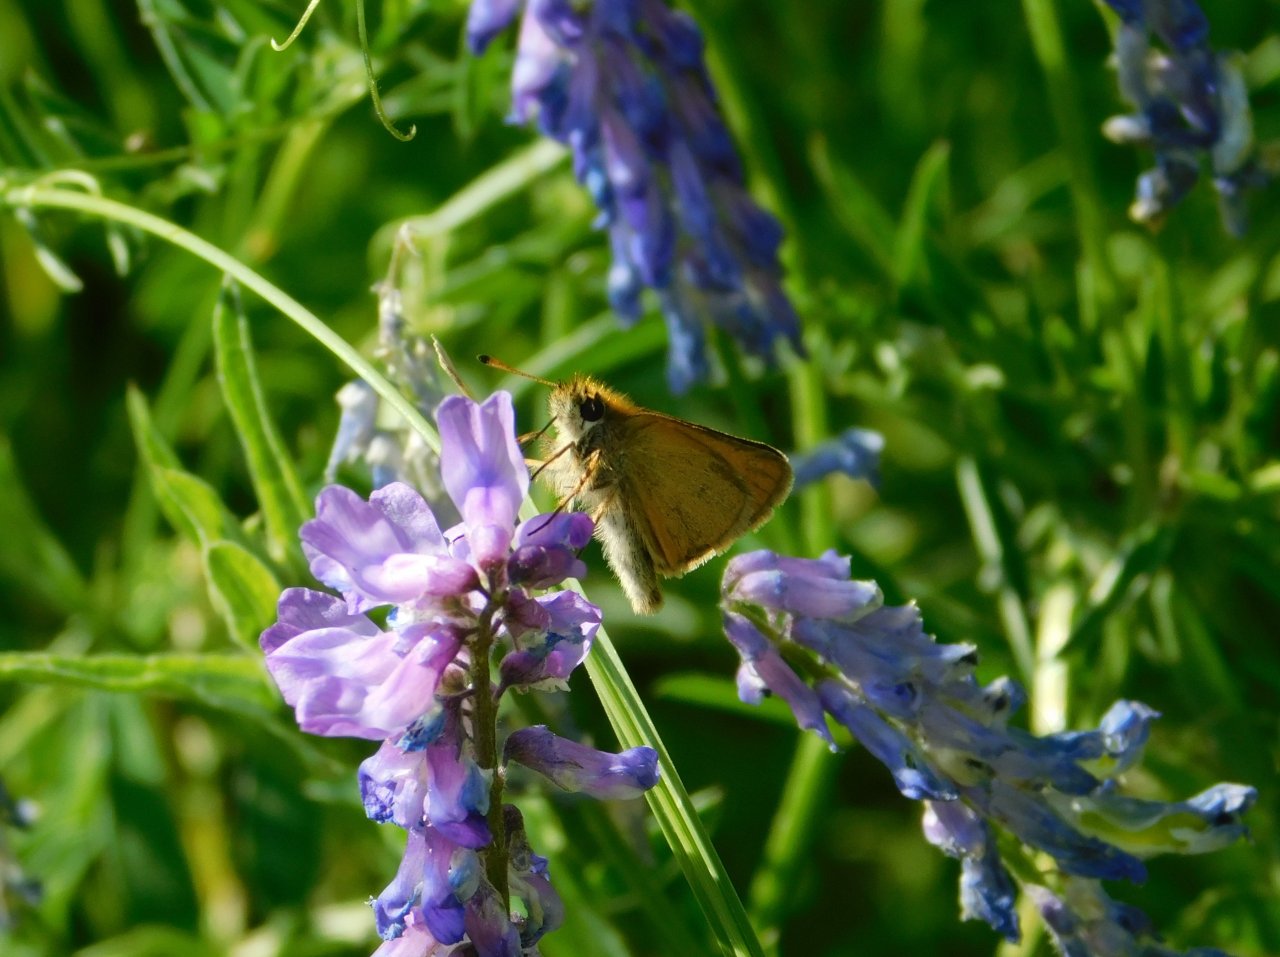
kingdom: Animalia
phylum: Arthropoda
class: Insecta
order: Lepidoptera
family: Hesperiidae
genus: Thymelicus
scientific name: Thymelicus lineola
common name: European Skipper
